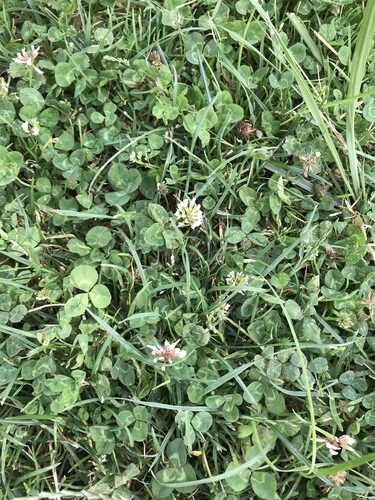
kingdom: Plantae
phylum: Tracheophyta
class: Magnoliopsida
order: Fabales
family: Fabaceae
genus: Trifolium
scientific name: Trifolium repens
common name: White clover
